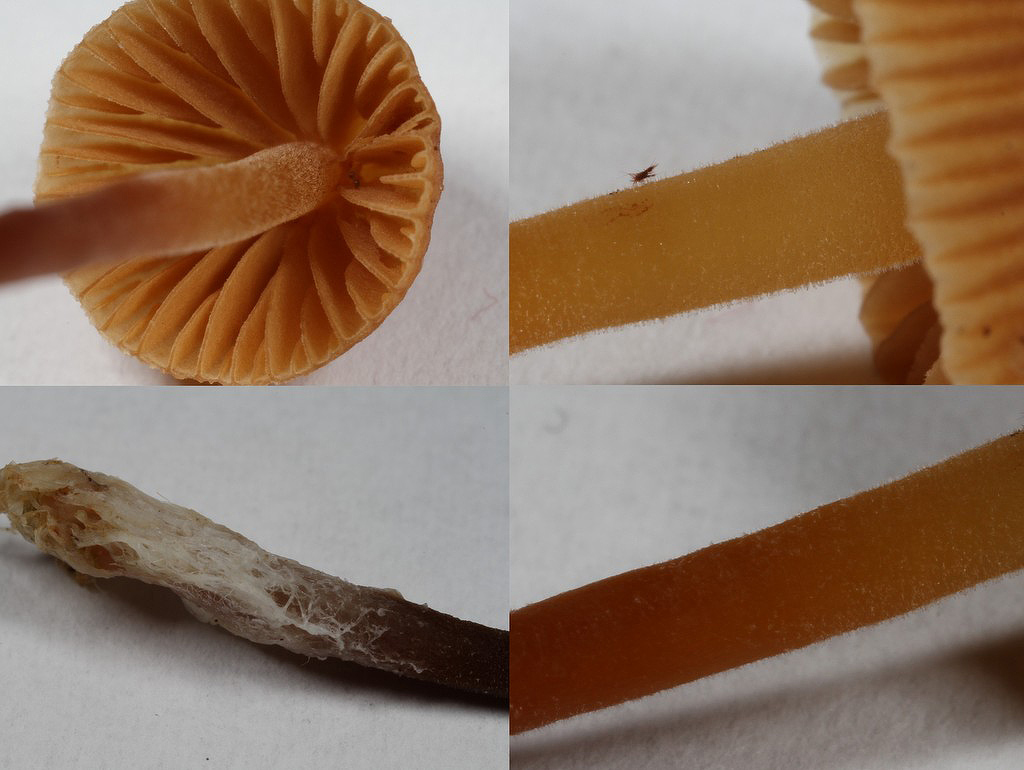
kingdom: Fungi
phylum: Basidiomycota
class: Agaricomycetes
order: Agaricales
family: Hymenogastraceae
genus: Galerina
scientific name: Galerina atkinsoniana
